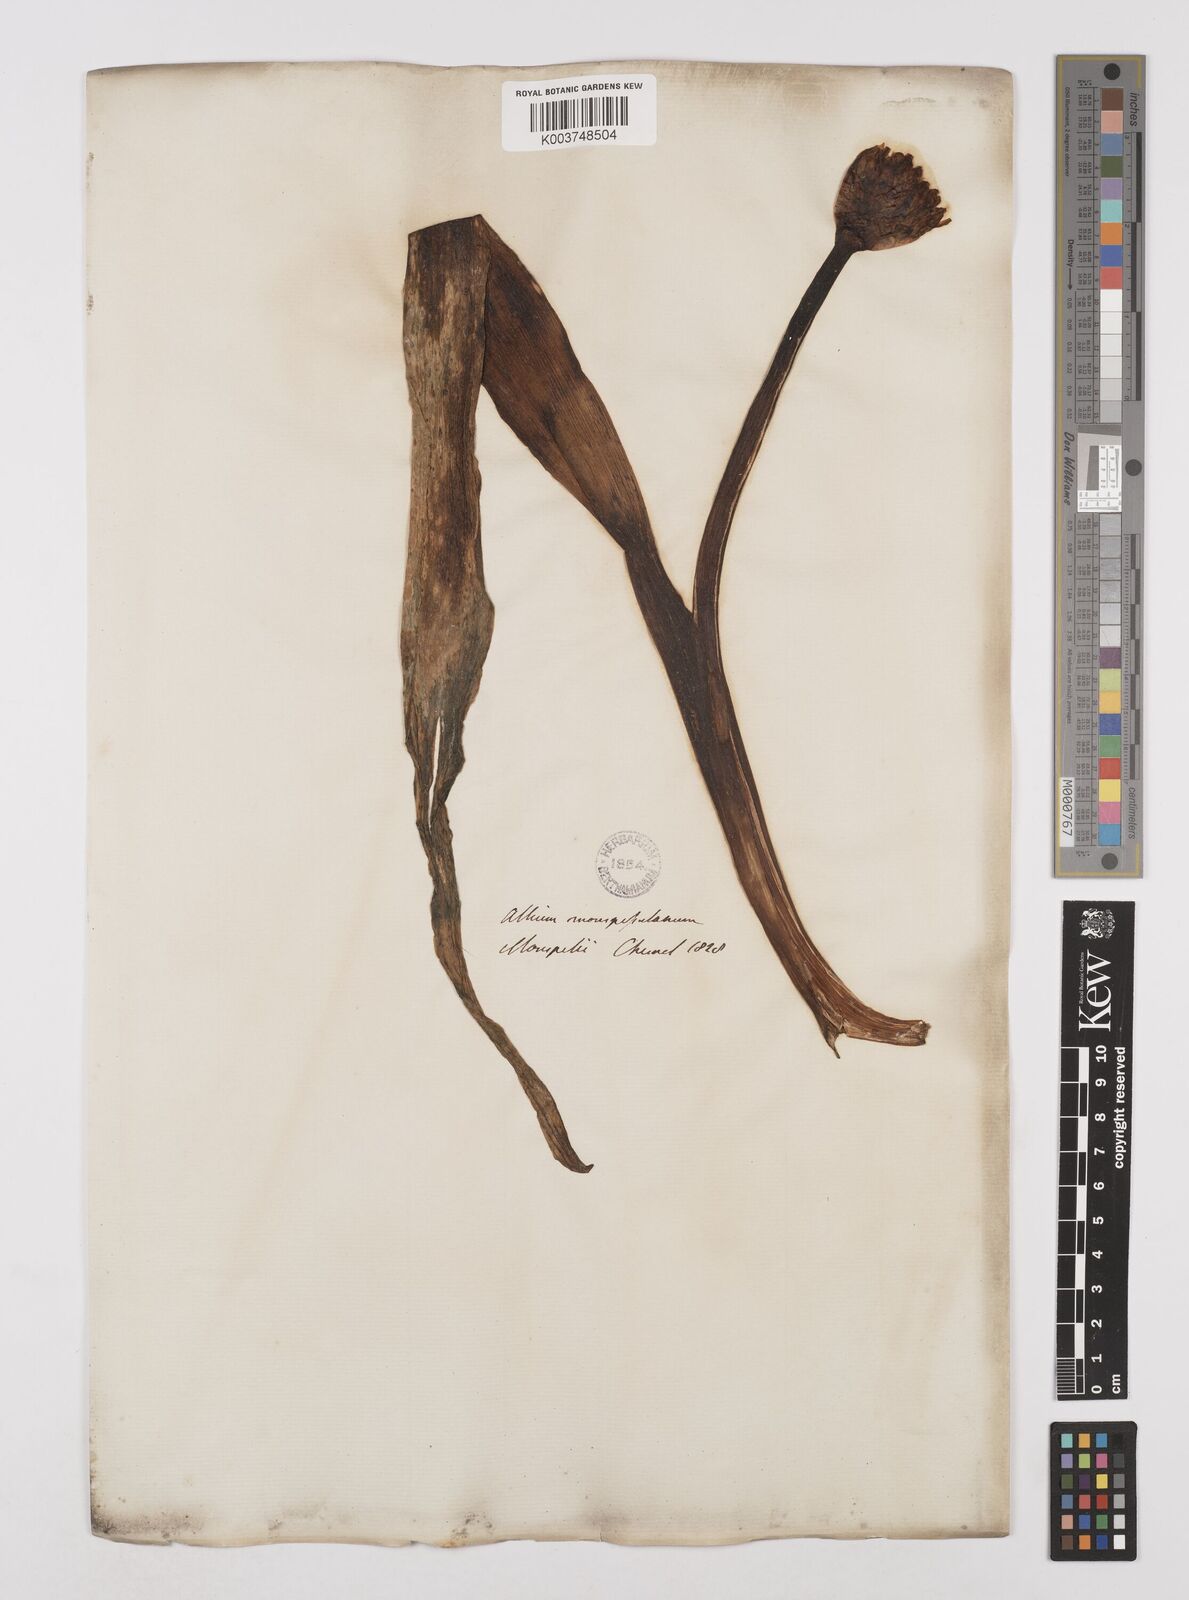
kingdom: Plantae
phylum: Tracheophyta
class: Liliopsida
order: Asparagales
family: Amaryllidaceae
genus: Allium
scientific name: Allium multibulbosum
